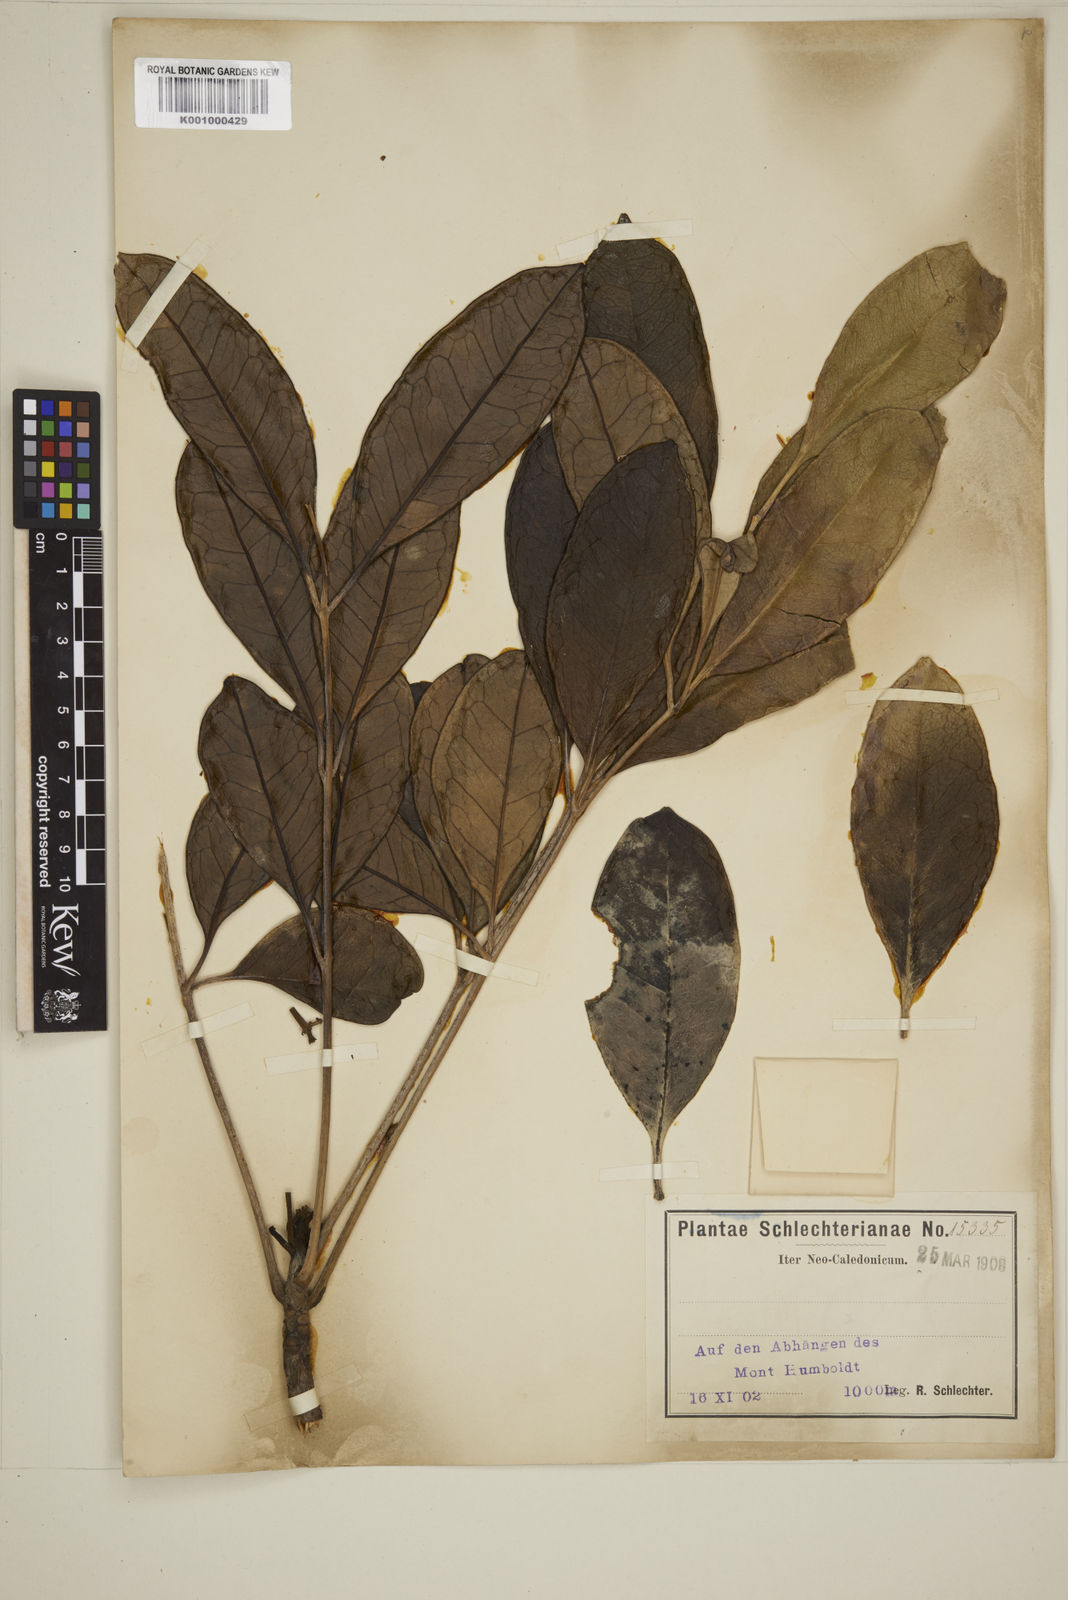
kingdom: Plantae
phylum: Tracheophyta
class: Magnoliopsida
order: Myrtales
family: Myrtaceae
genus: Eugenia
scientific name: Eugenia
